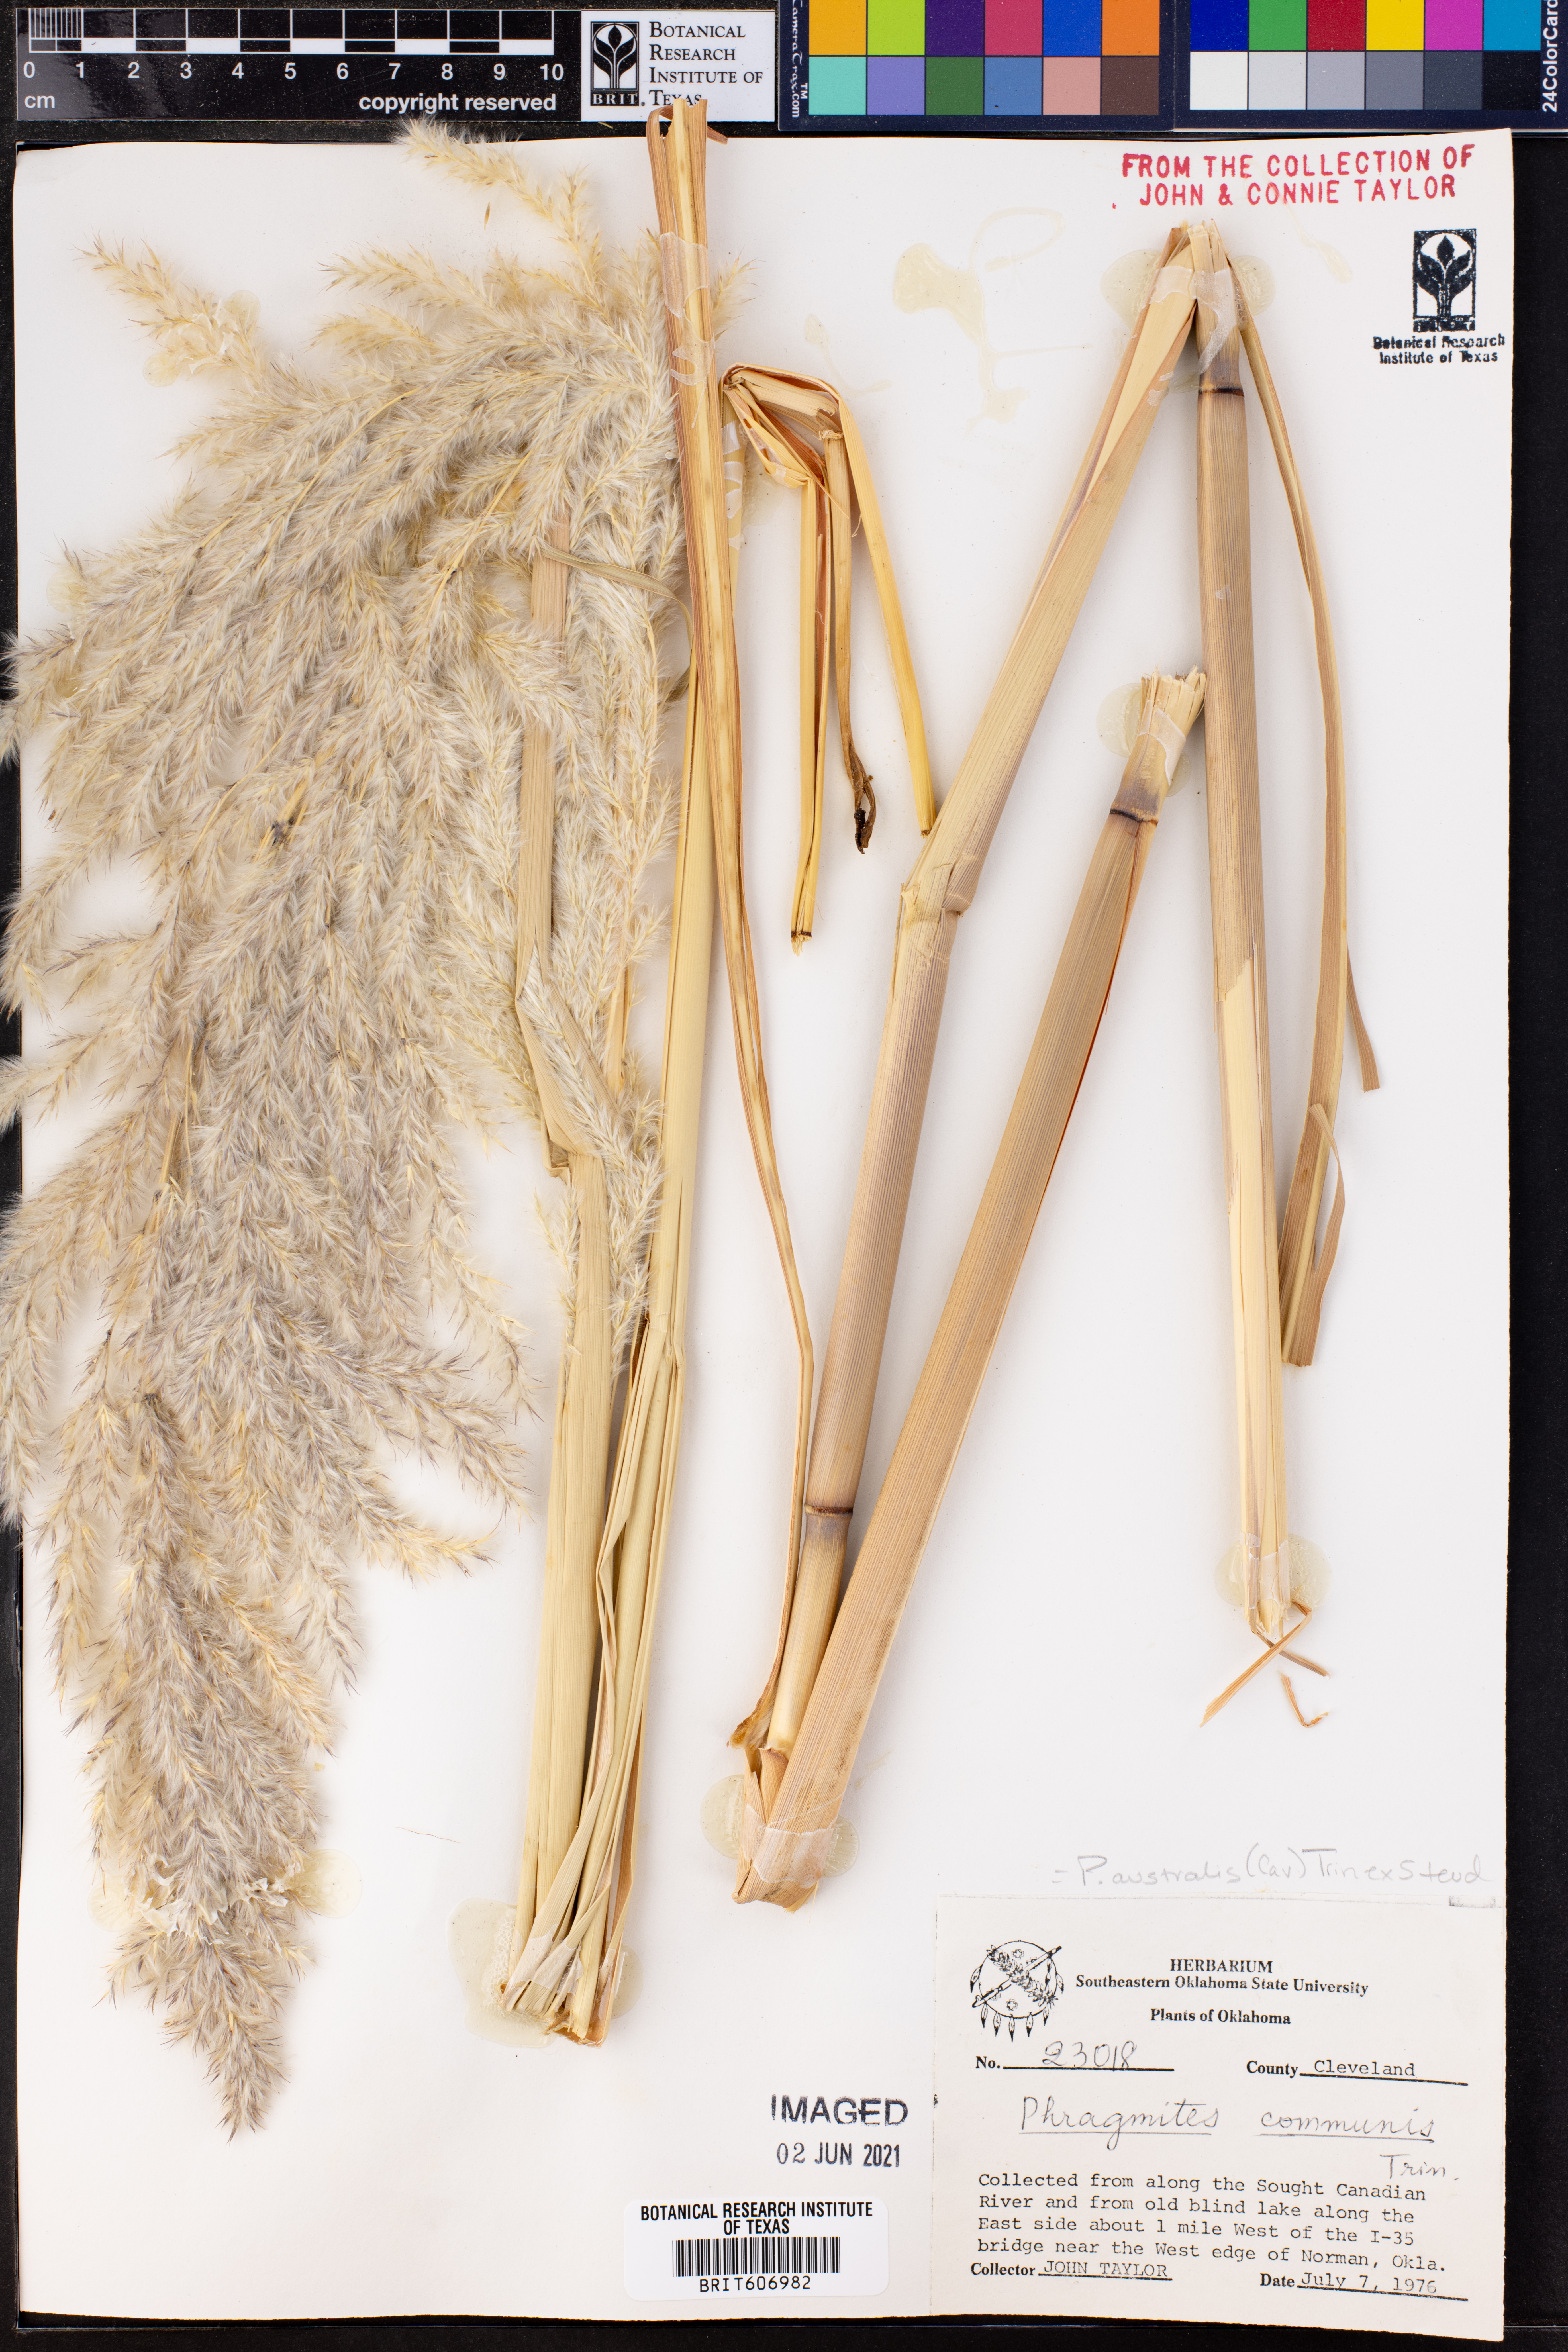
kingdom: Plantae
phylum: Tracheophyta
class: Liliopsida
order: Poales
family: Poaceae
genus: Phragmites
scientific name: Phragmites australis
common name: Common reed
